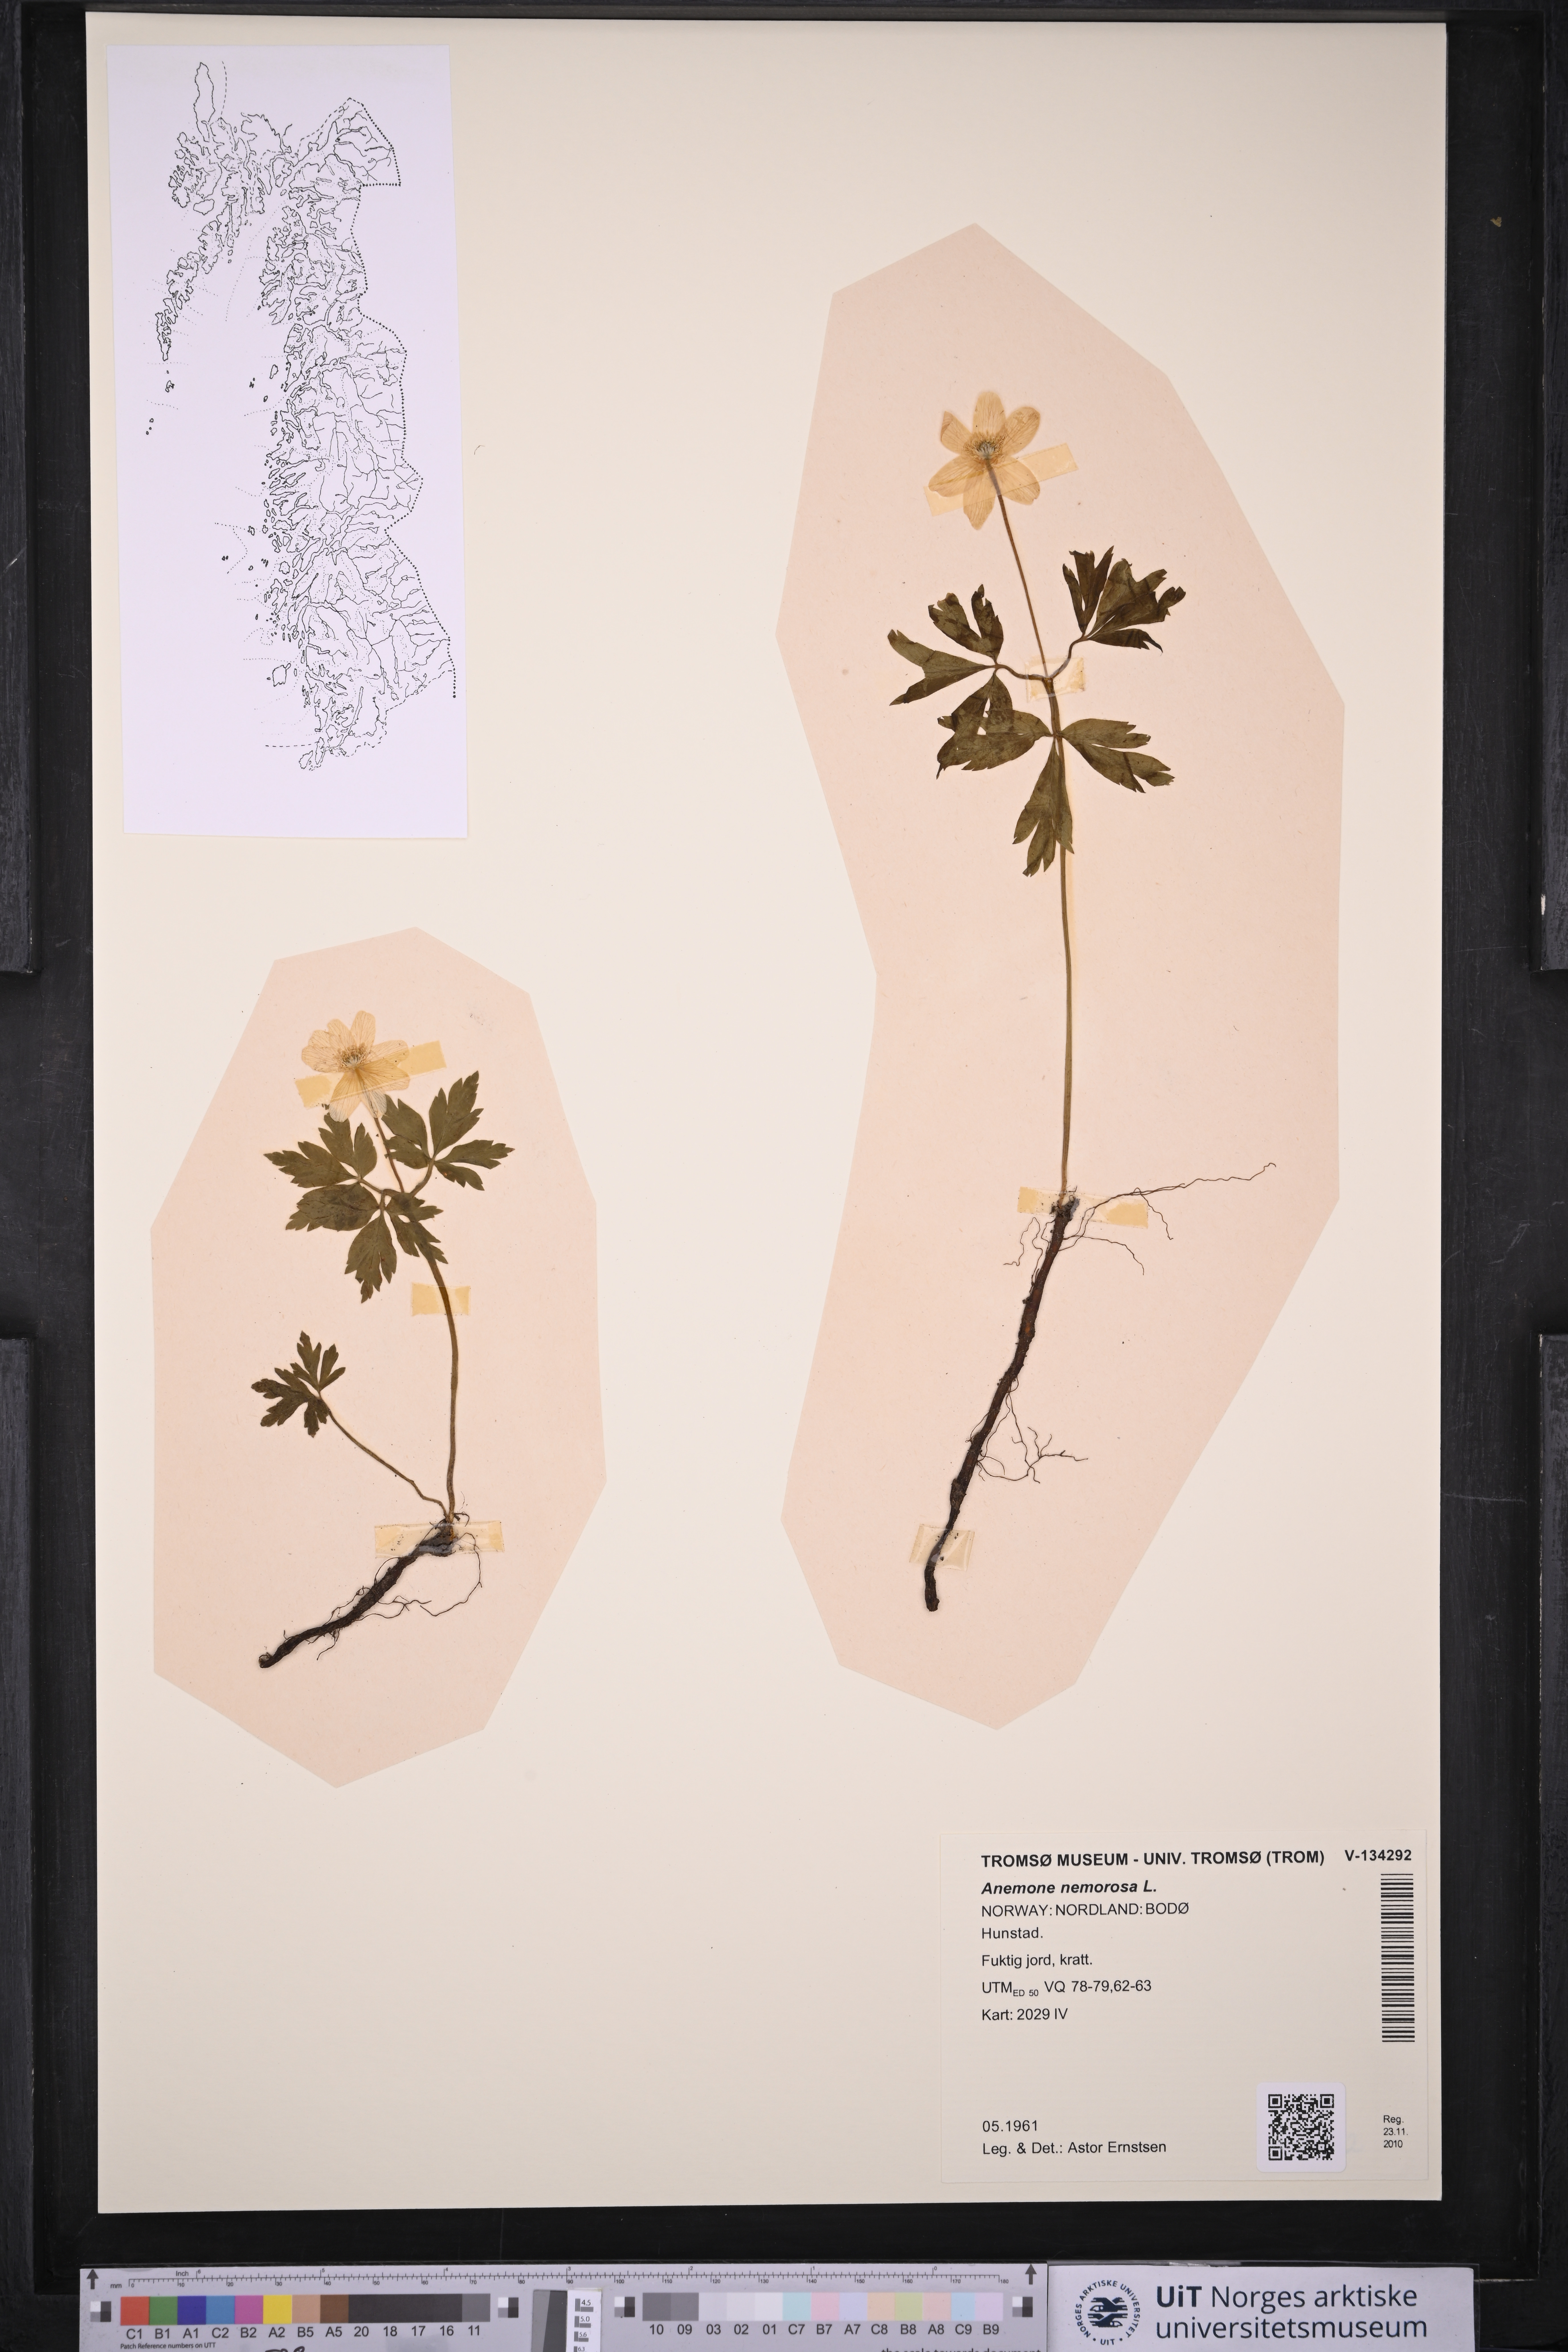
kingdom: Plantae
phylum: Tracheophyta
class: Magnoliopsida
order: Ranunculales
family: Ranunculaceae
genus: Anemone
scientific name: Anemone nemorosa
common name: Wood anemone
